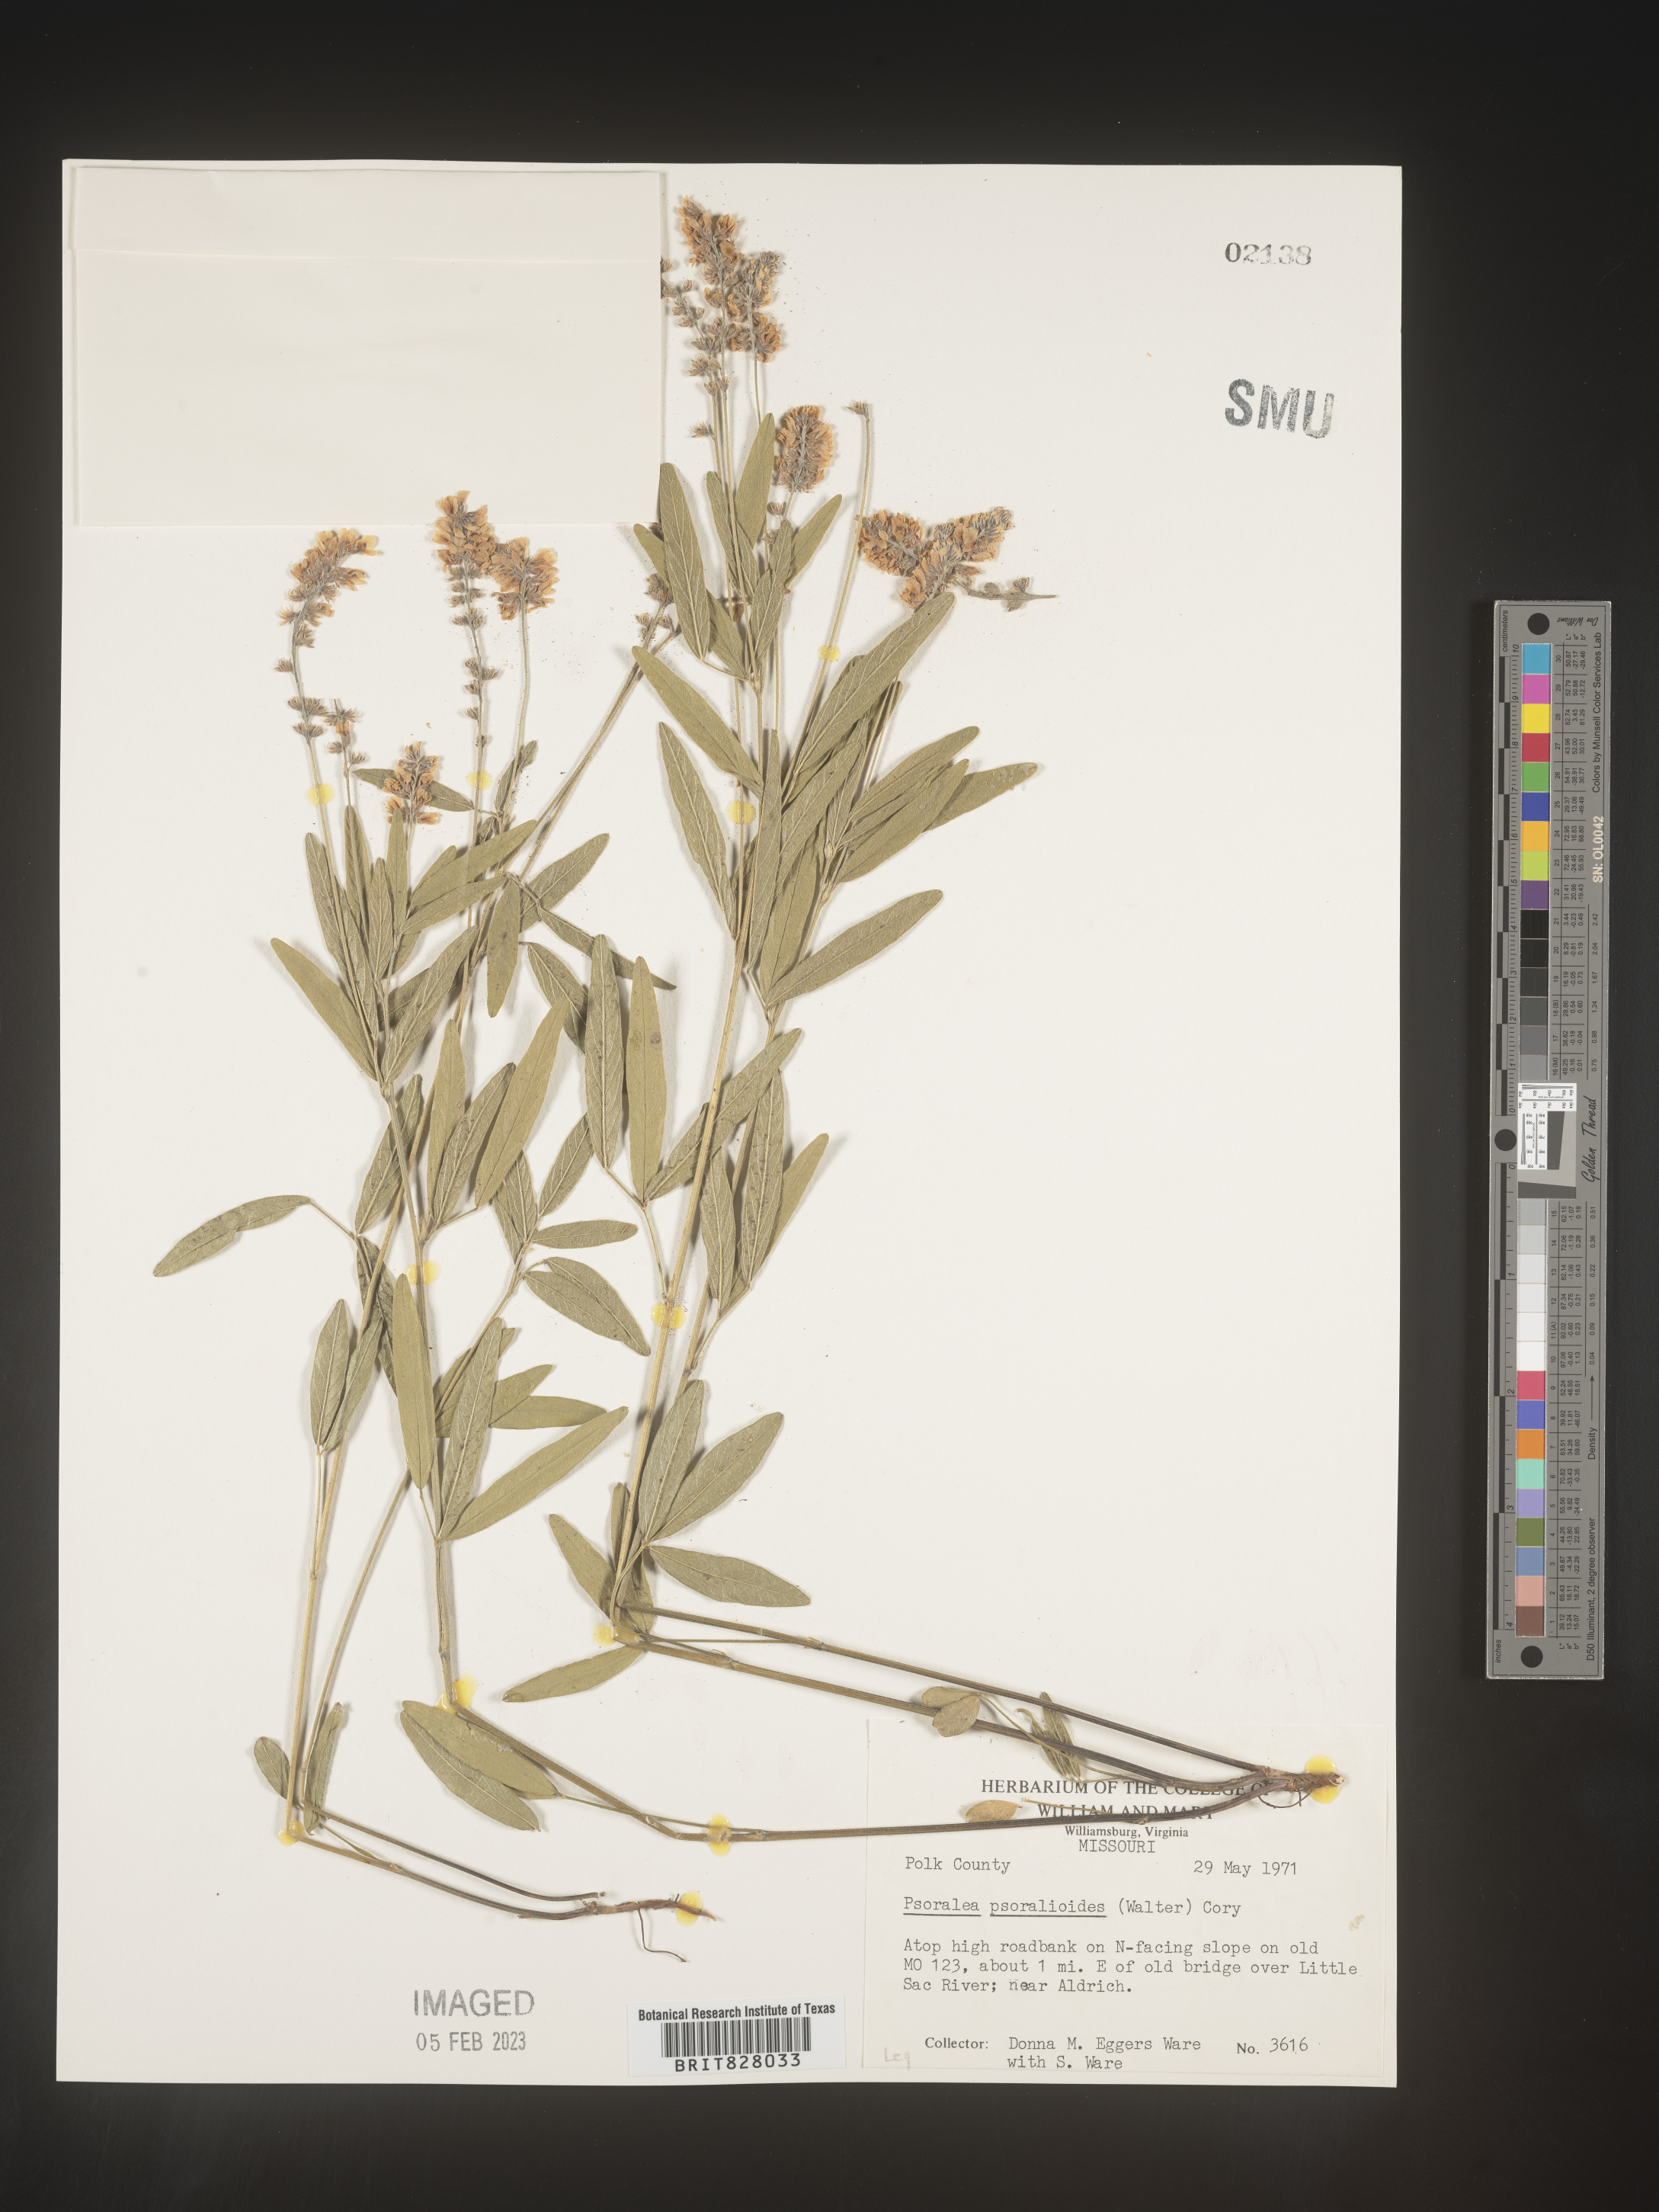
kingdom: Plantae
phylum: Tracheophyta
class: Magnoliopsida
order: Fabales
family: Fabaceae
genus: Orbexilum
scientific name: Orbexilum pedunculatum
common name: Sampson's snakeroot
